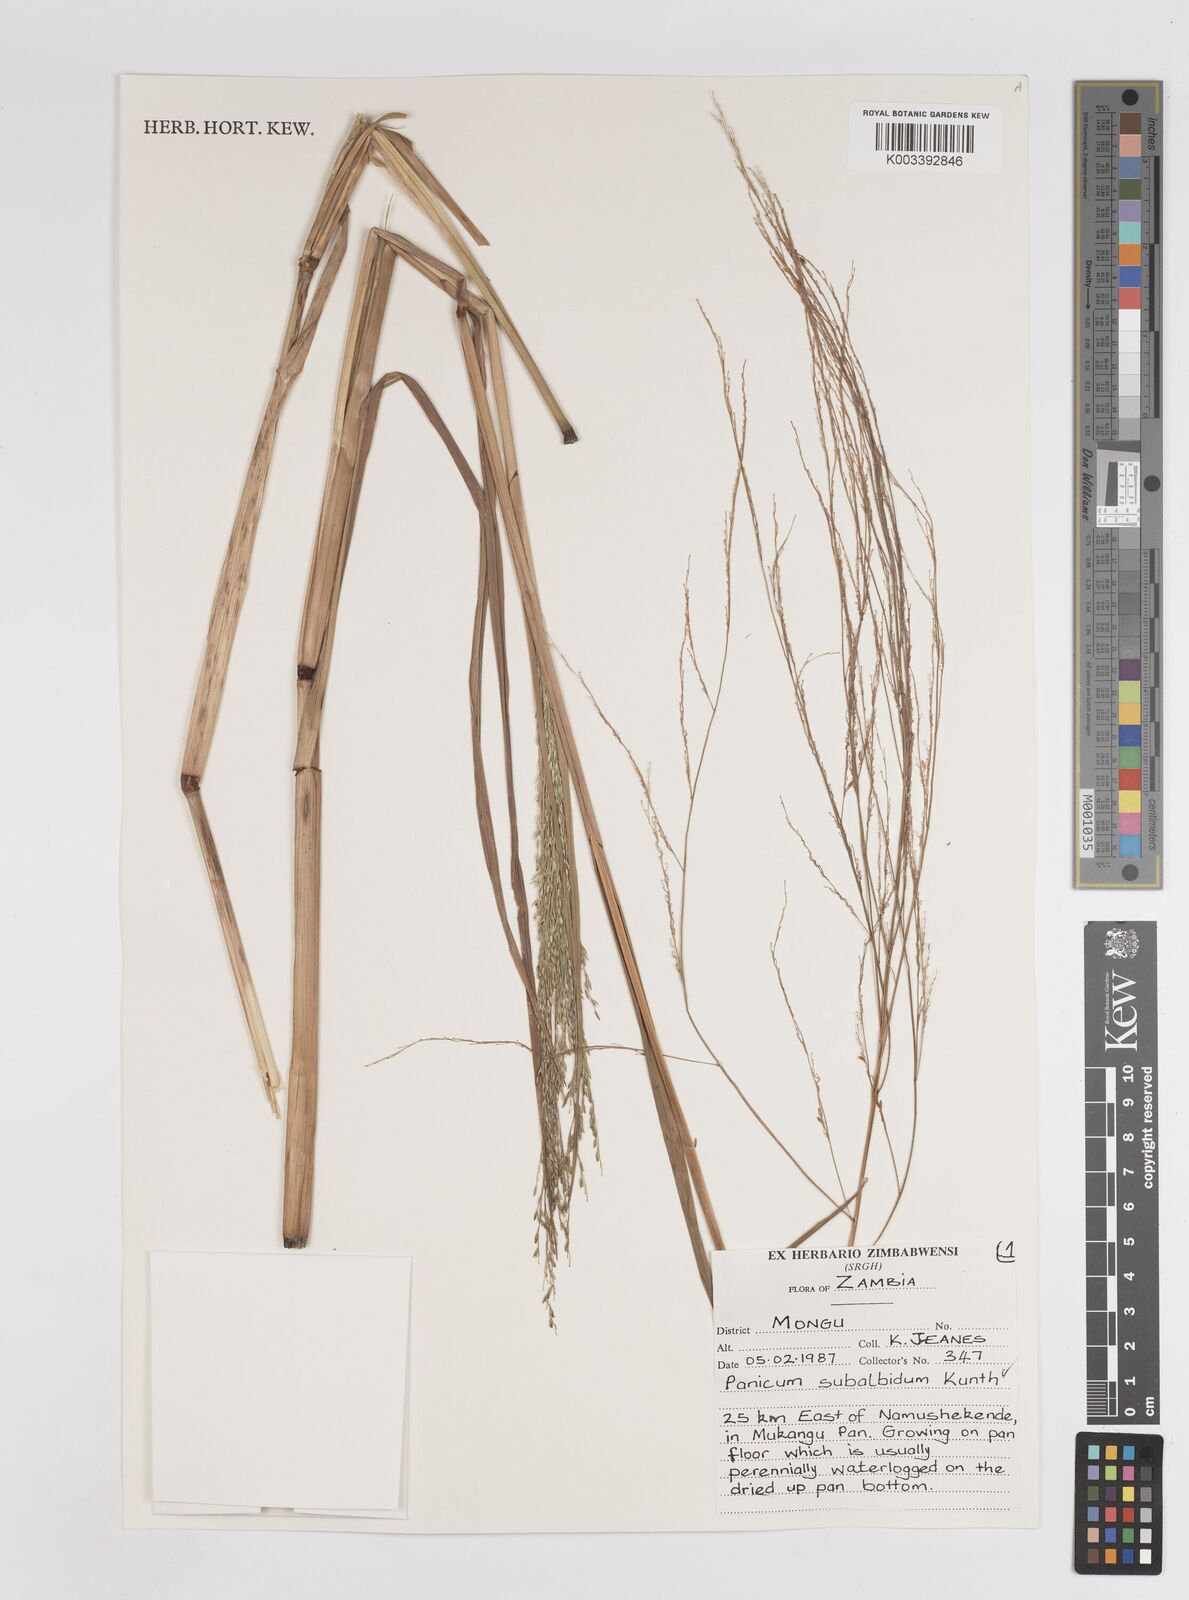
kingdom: Plantae
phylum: Tracheophyta
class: Liliopsida
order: Poales
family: Poaceae
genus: Panicum
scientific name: Panicum subalbidum
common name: Elbow buffalo grass
